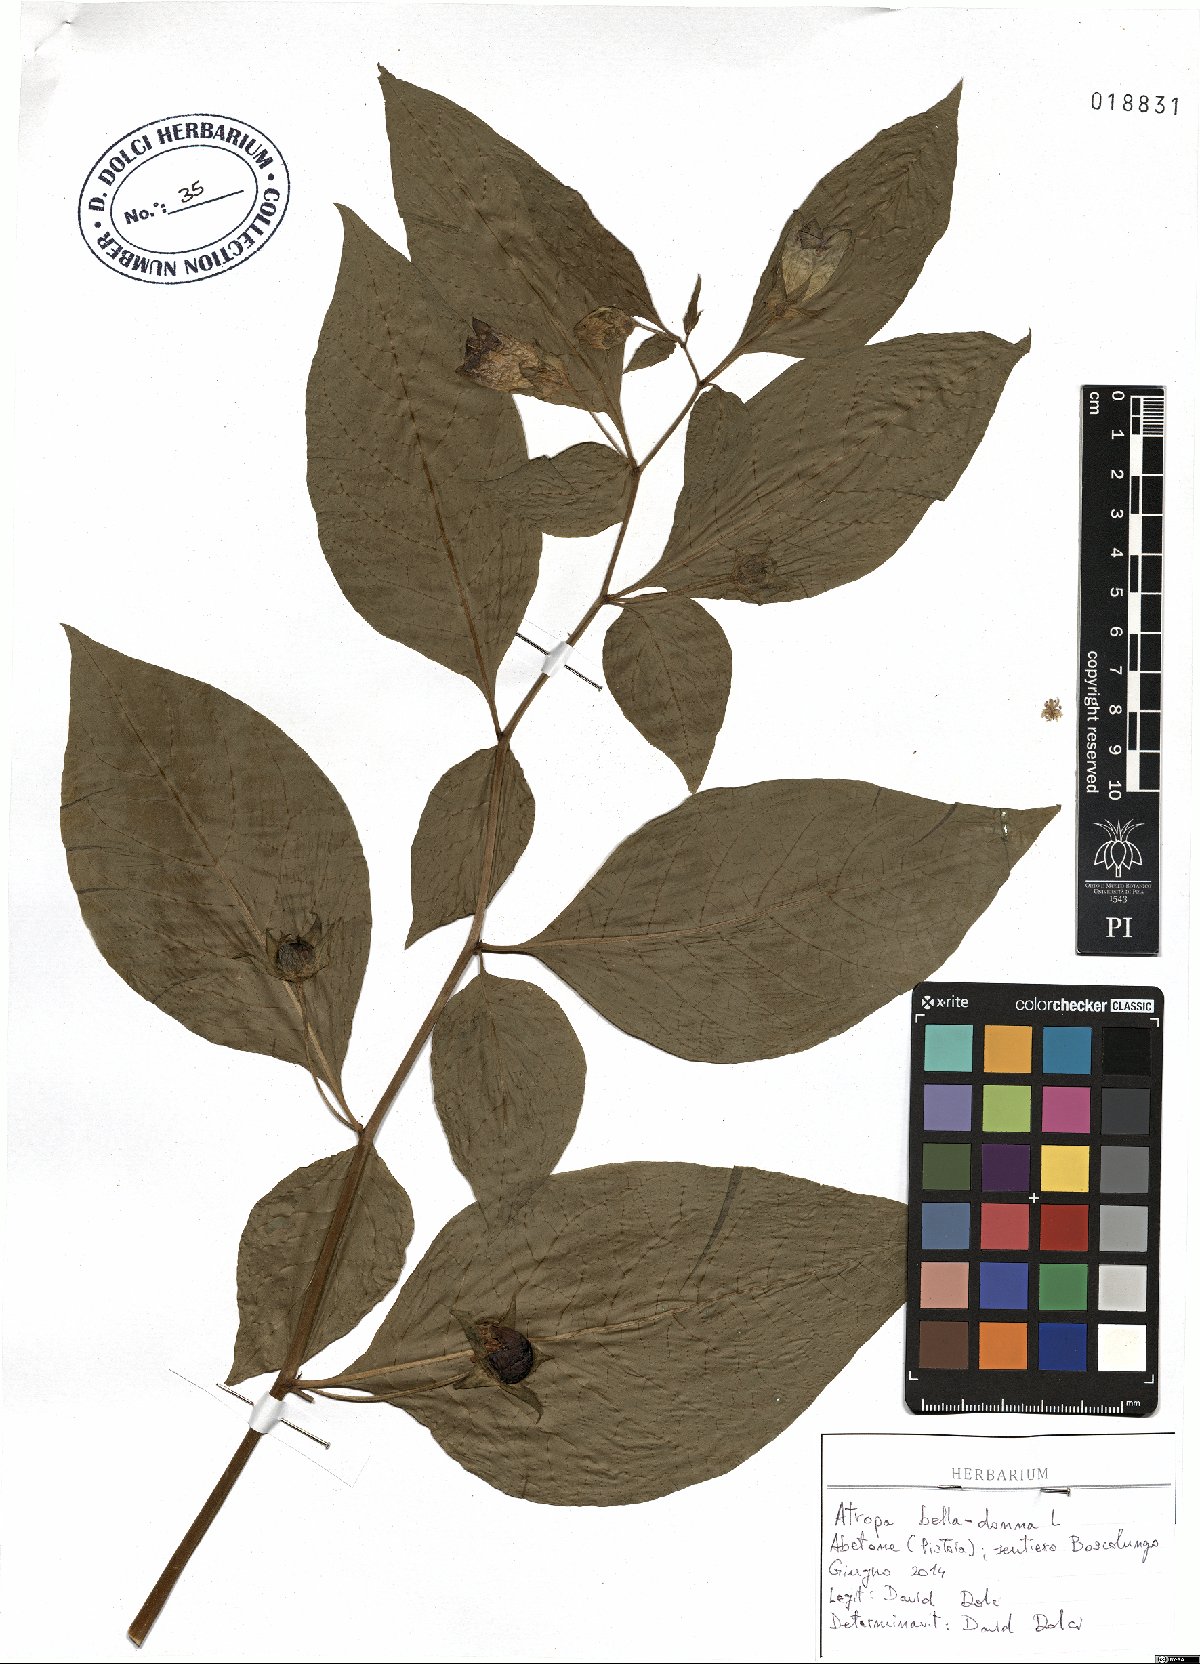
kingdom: Plantae
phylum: Tracheophyta
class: Magnoliopsida
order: Solanales
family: Solanaceae
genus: Atropa
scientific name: Atropa belladonna
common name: Deadly nightshade
